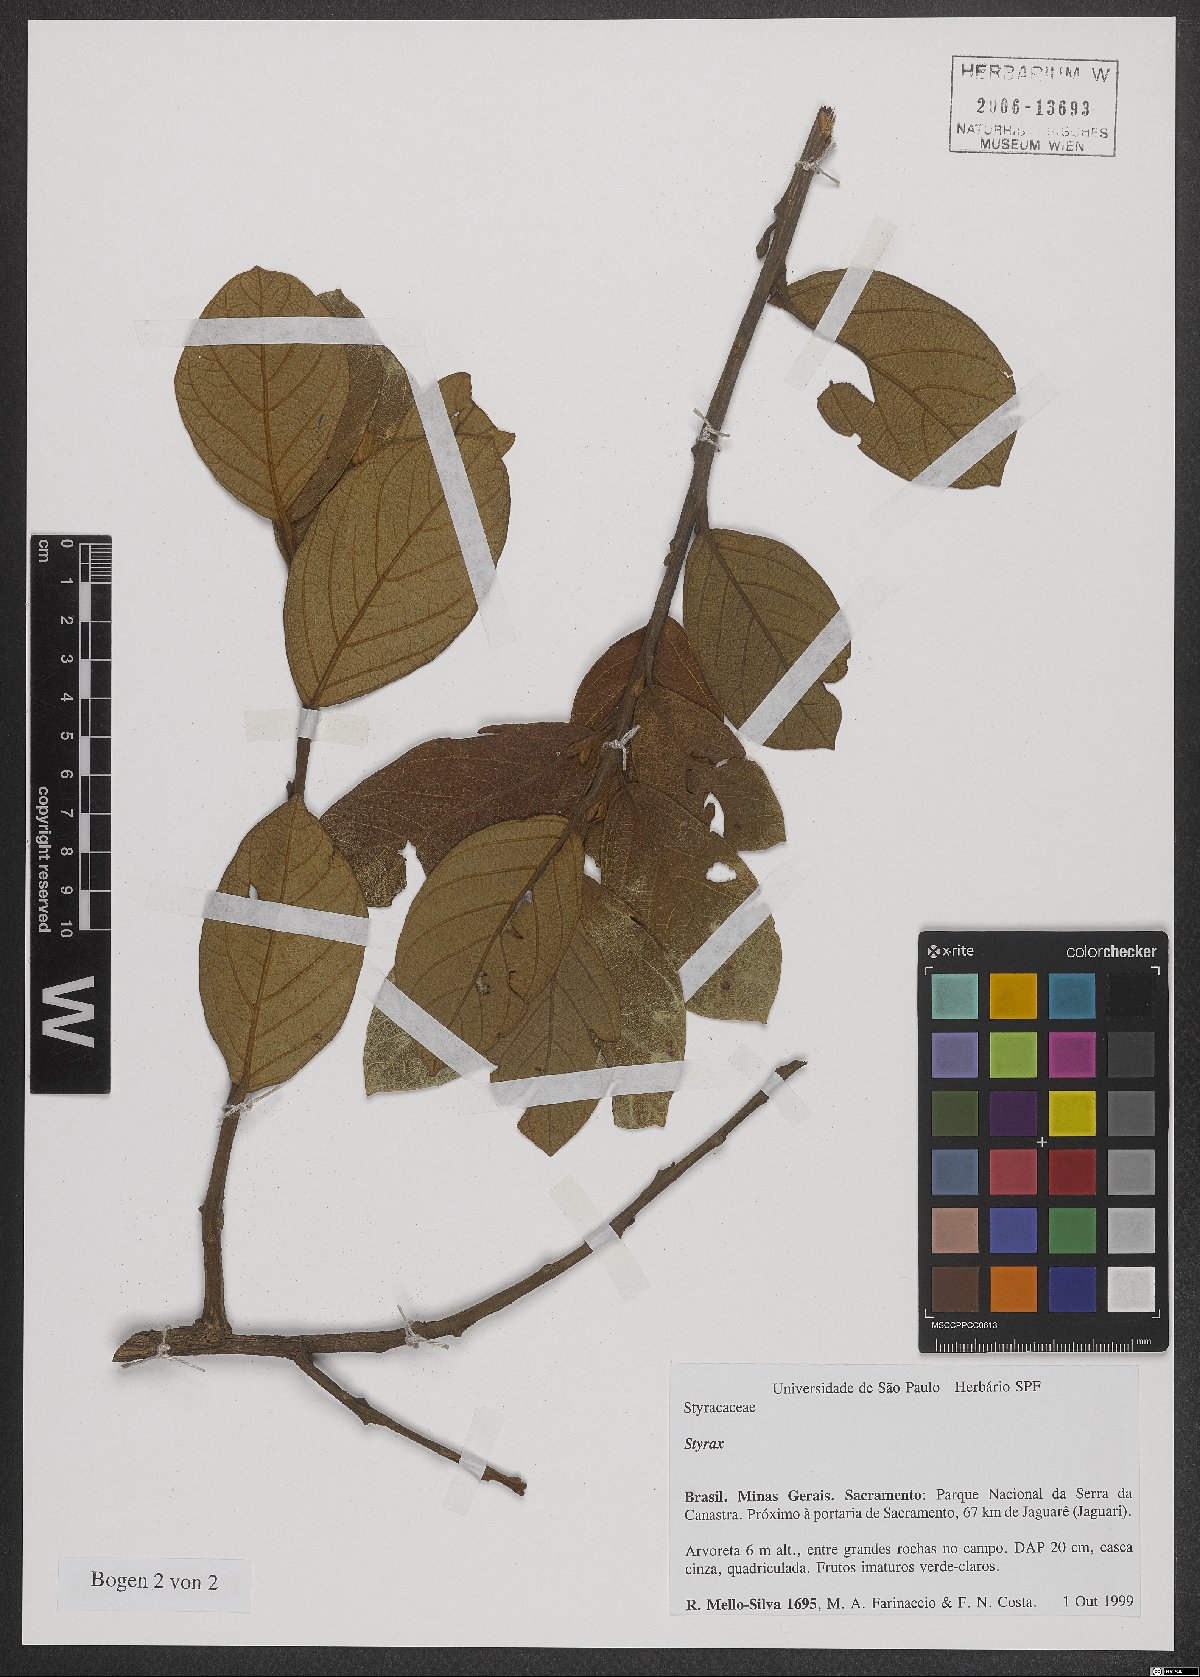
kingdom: Plantae
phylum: Tracheophyta
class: Magnoliopsida
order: Ericales
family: Styracaceae
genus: Styrax
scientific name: Styrax
